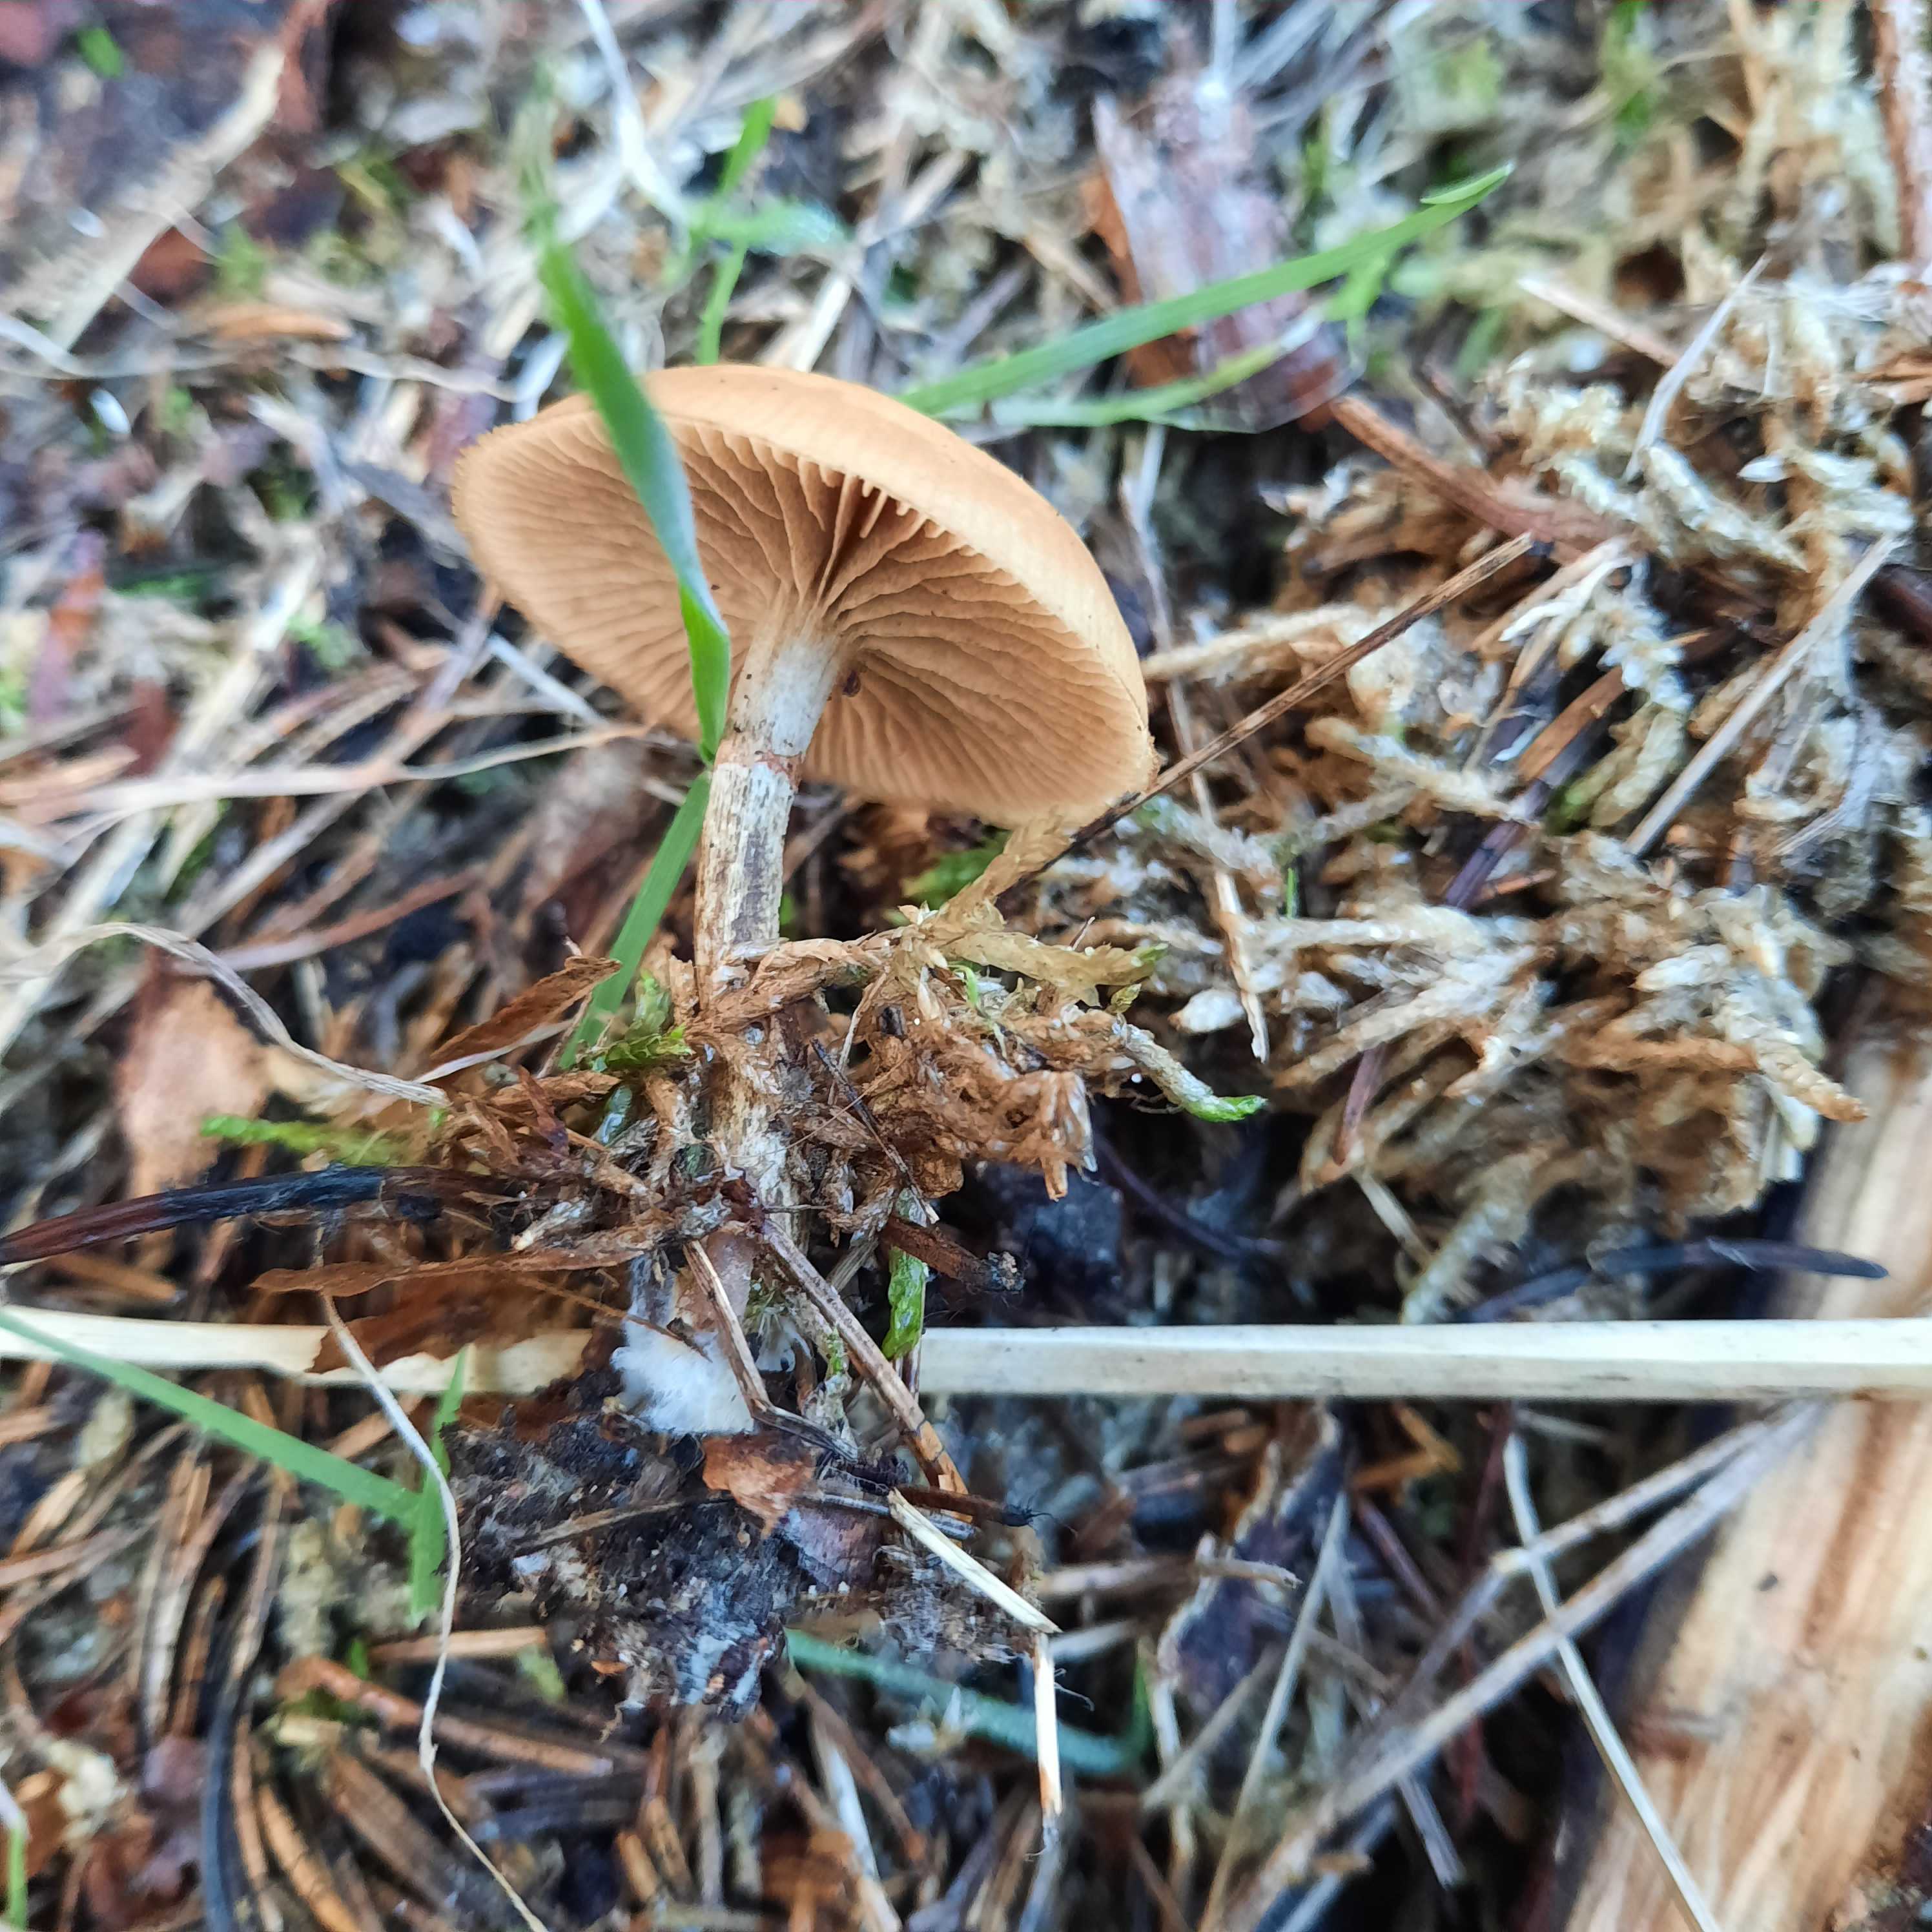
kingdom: Fungi
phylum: Basidiomycota
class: Agaricomycetes
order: Agaricales
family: Hymenogastraceae
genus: Galerina
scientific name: Galerina marginata
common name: randbæltet hjelmhat
